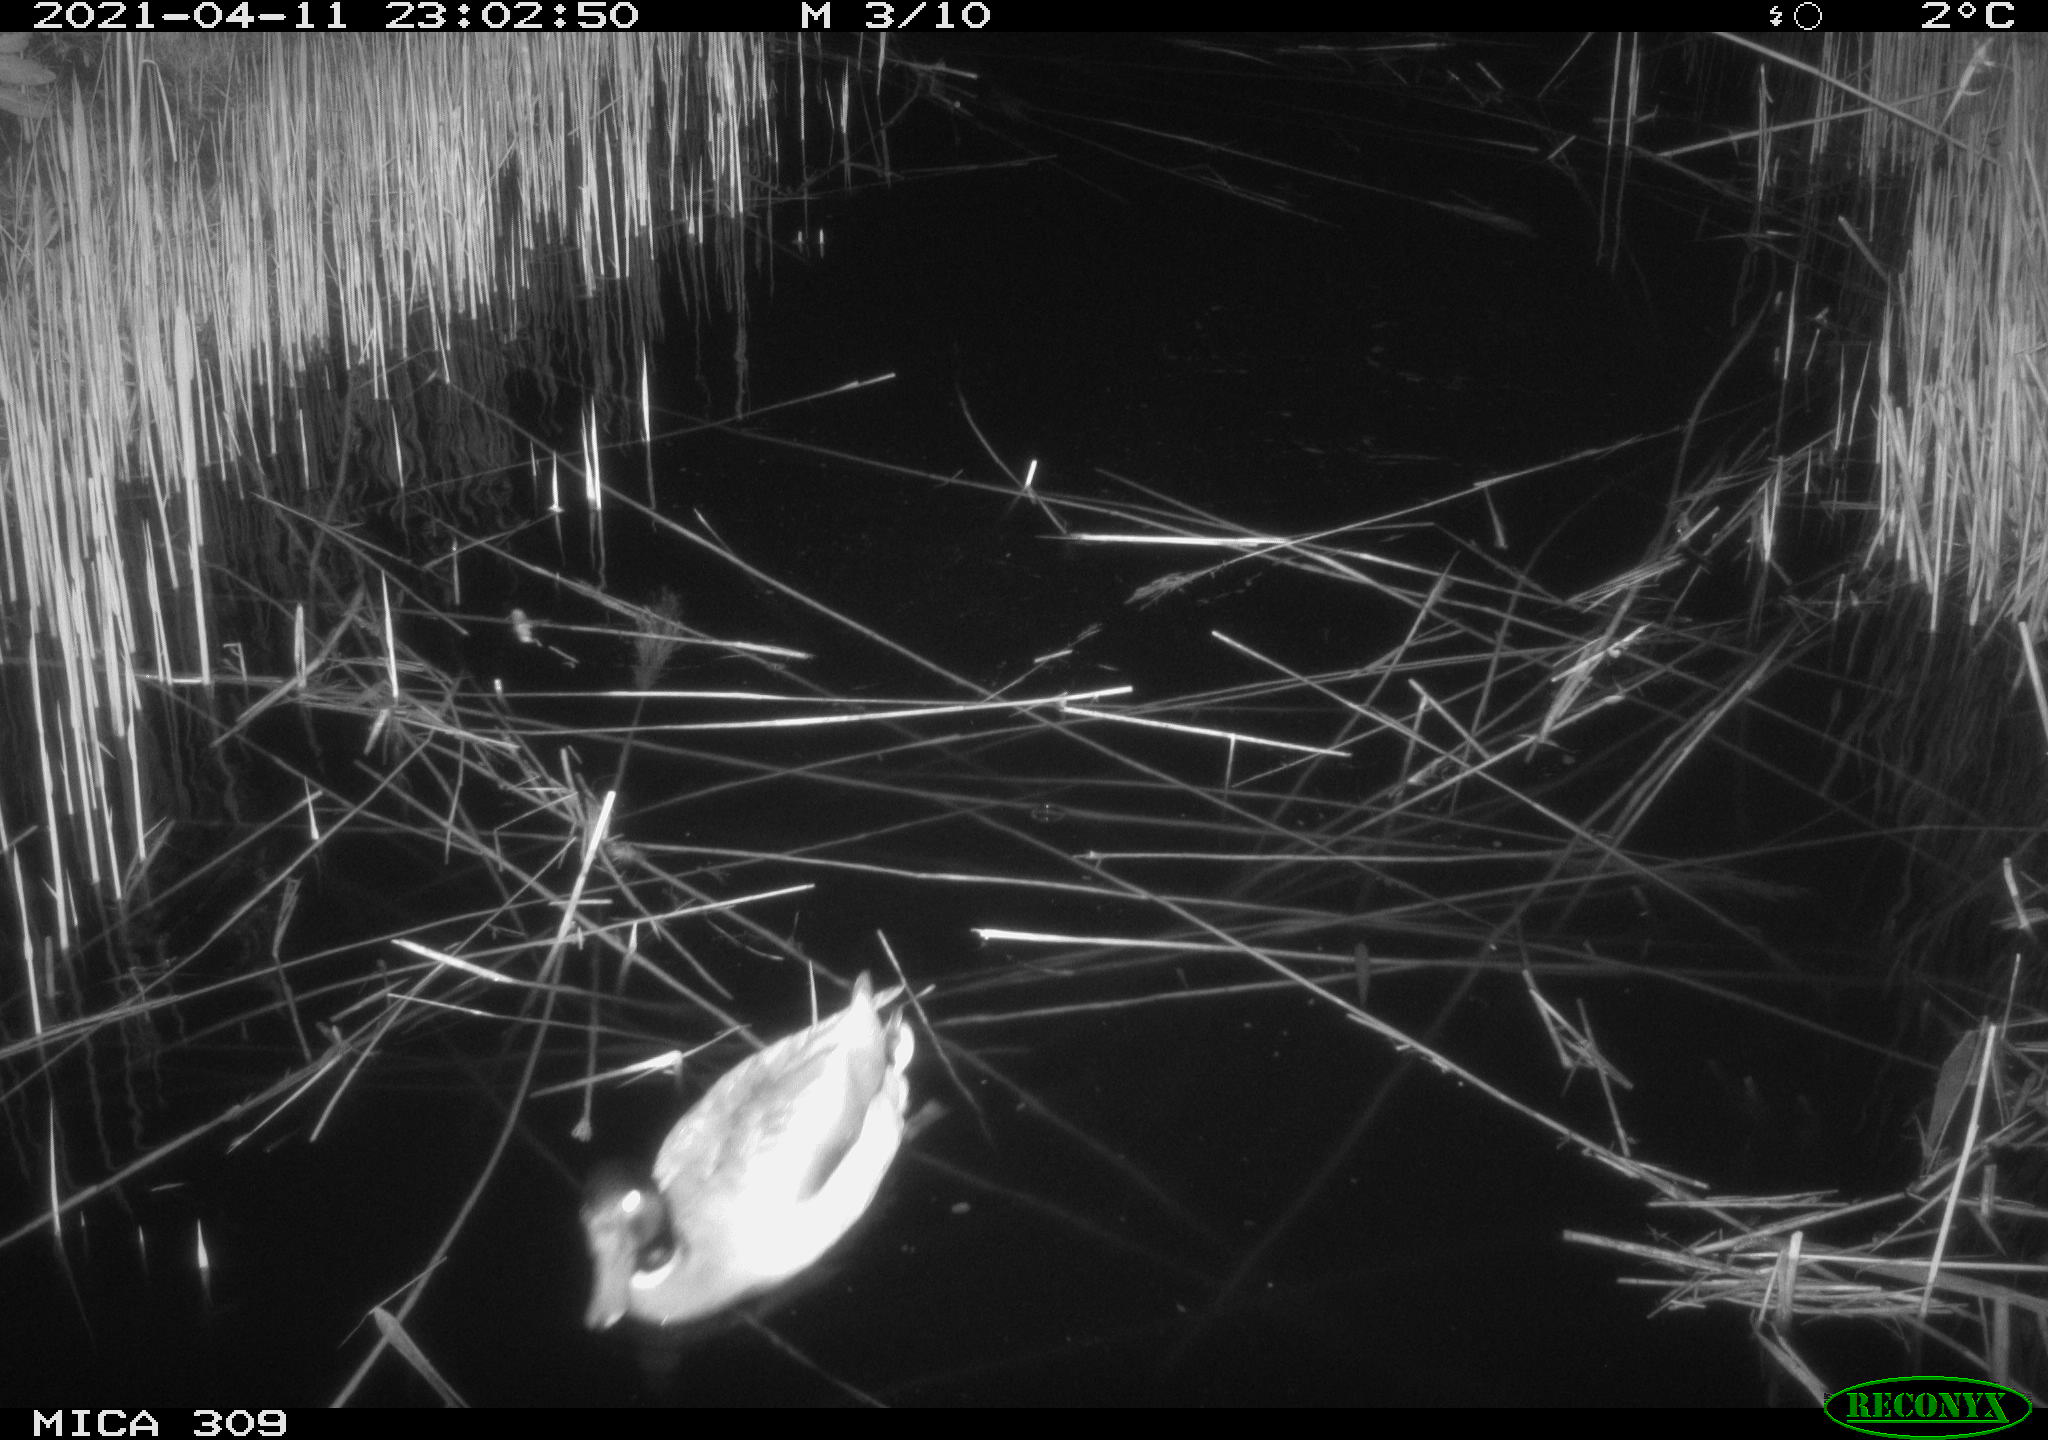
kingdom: Animalia
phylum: Chordata
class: Aves
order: Anseriformes
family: Anatidae
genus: Anas
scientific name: Anas platyrhynchos
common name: Mallard
